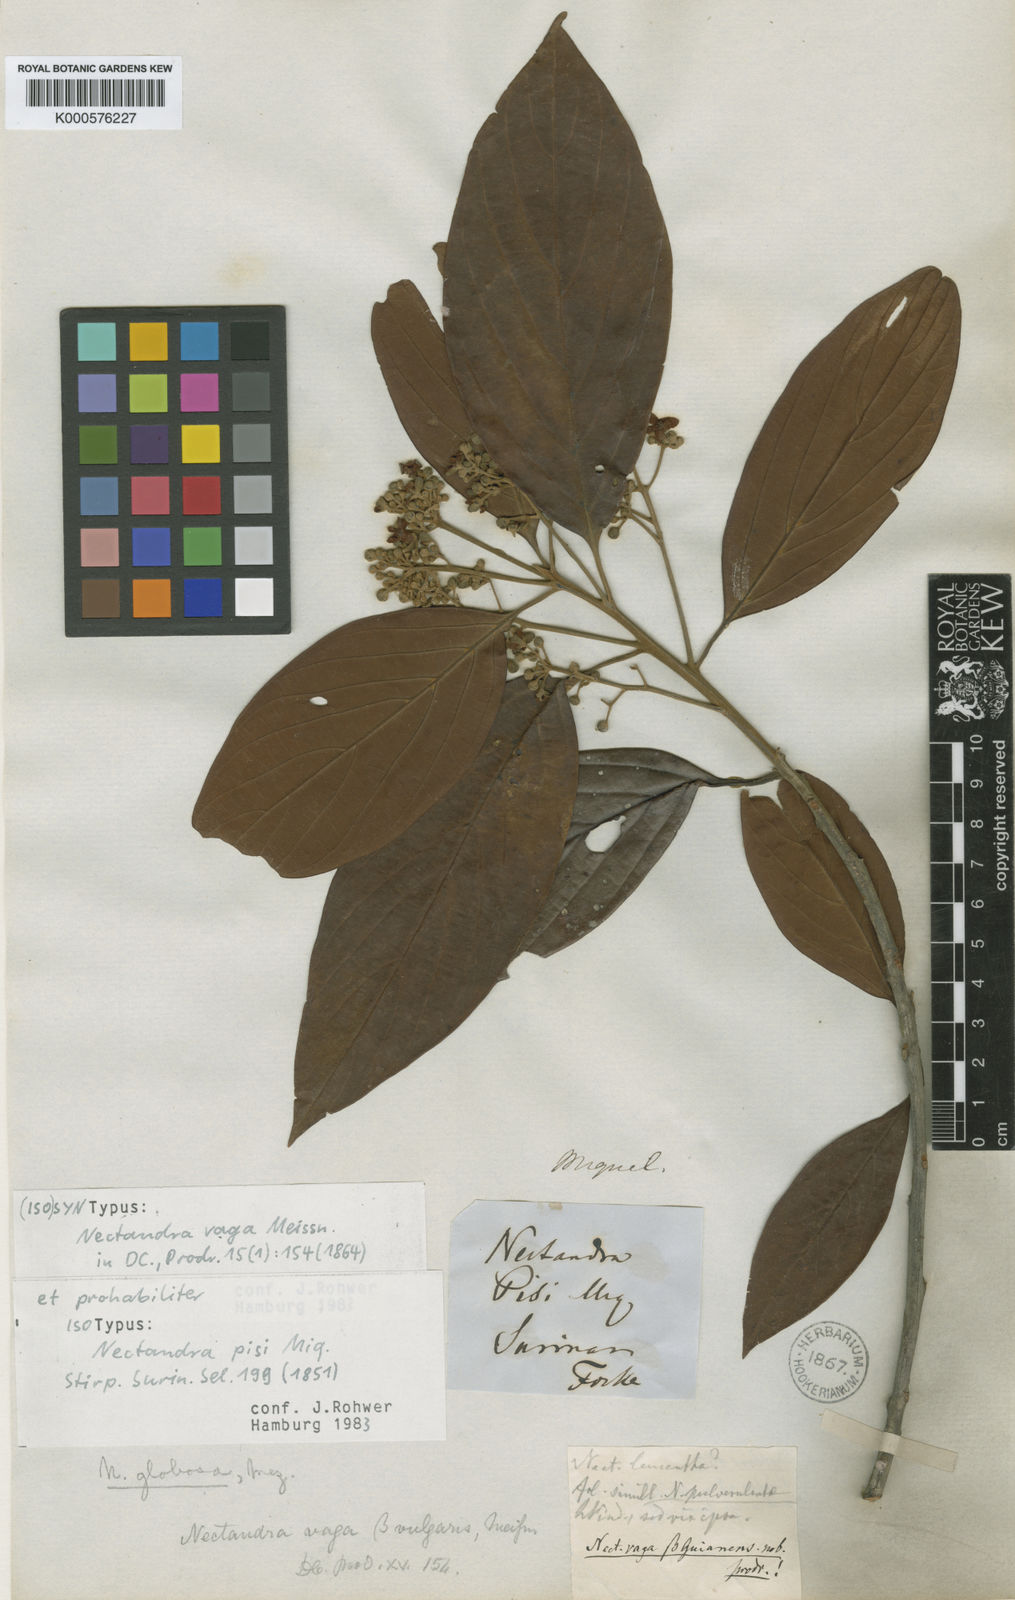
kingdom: Plantae
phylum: Tracheophyta
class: Magnoliopsida
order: Laurales
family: Lauraceae
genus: Nectandra
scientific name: Nectandra globosa
